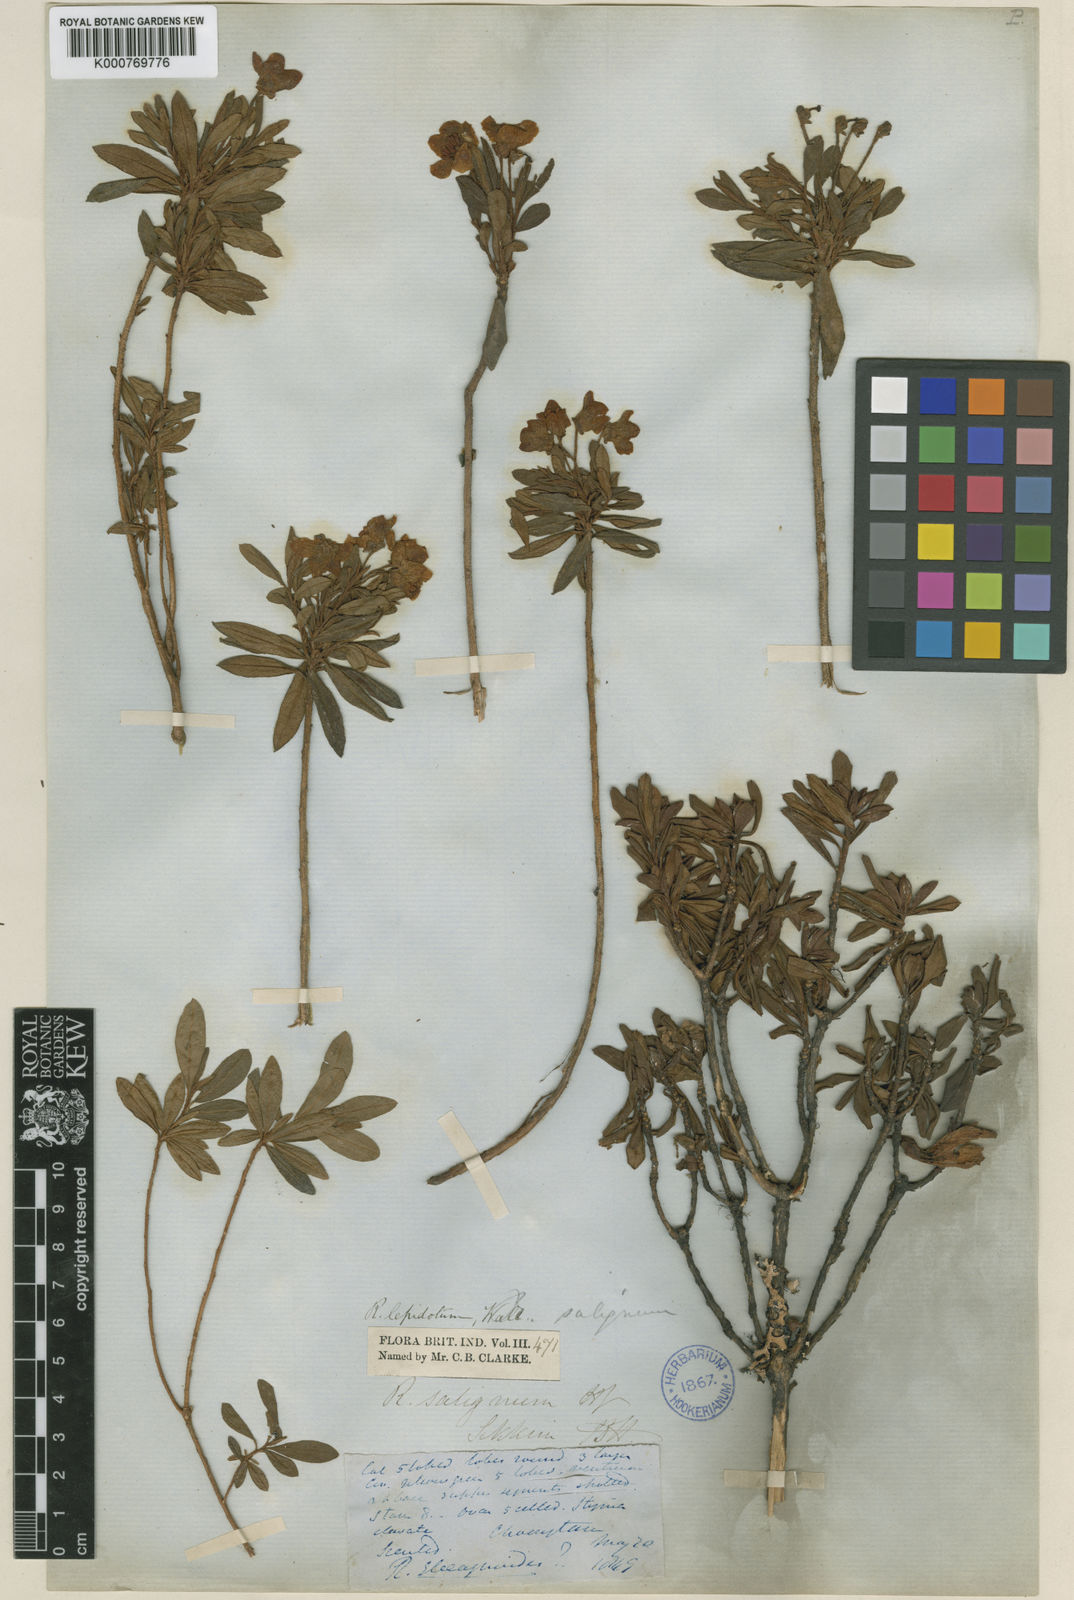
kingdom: Plantae
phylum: Tracheophyta
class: Magnoliopsida
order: Ericales
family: Ericaceae
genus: Rhododendron
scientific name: Rhododendron lepidotum
